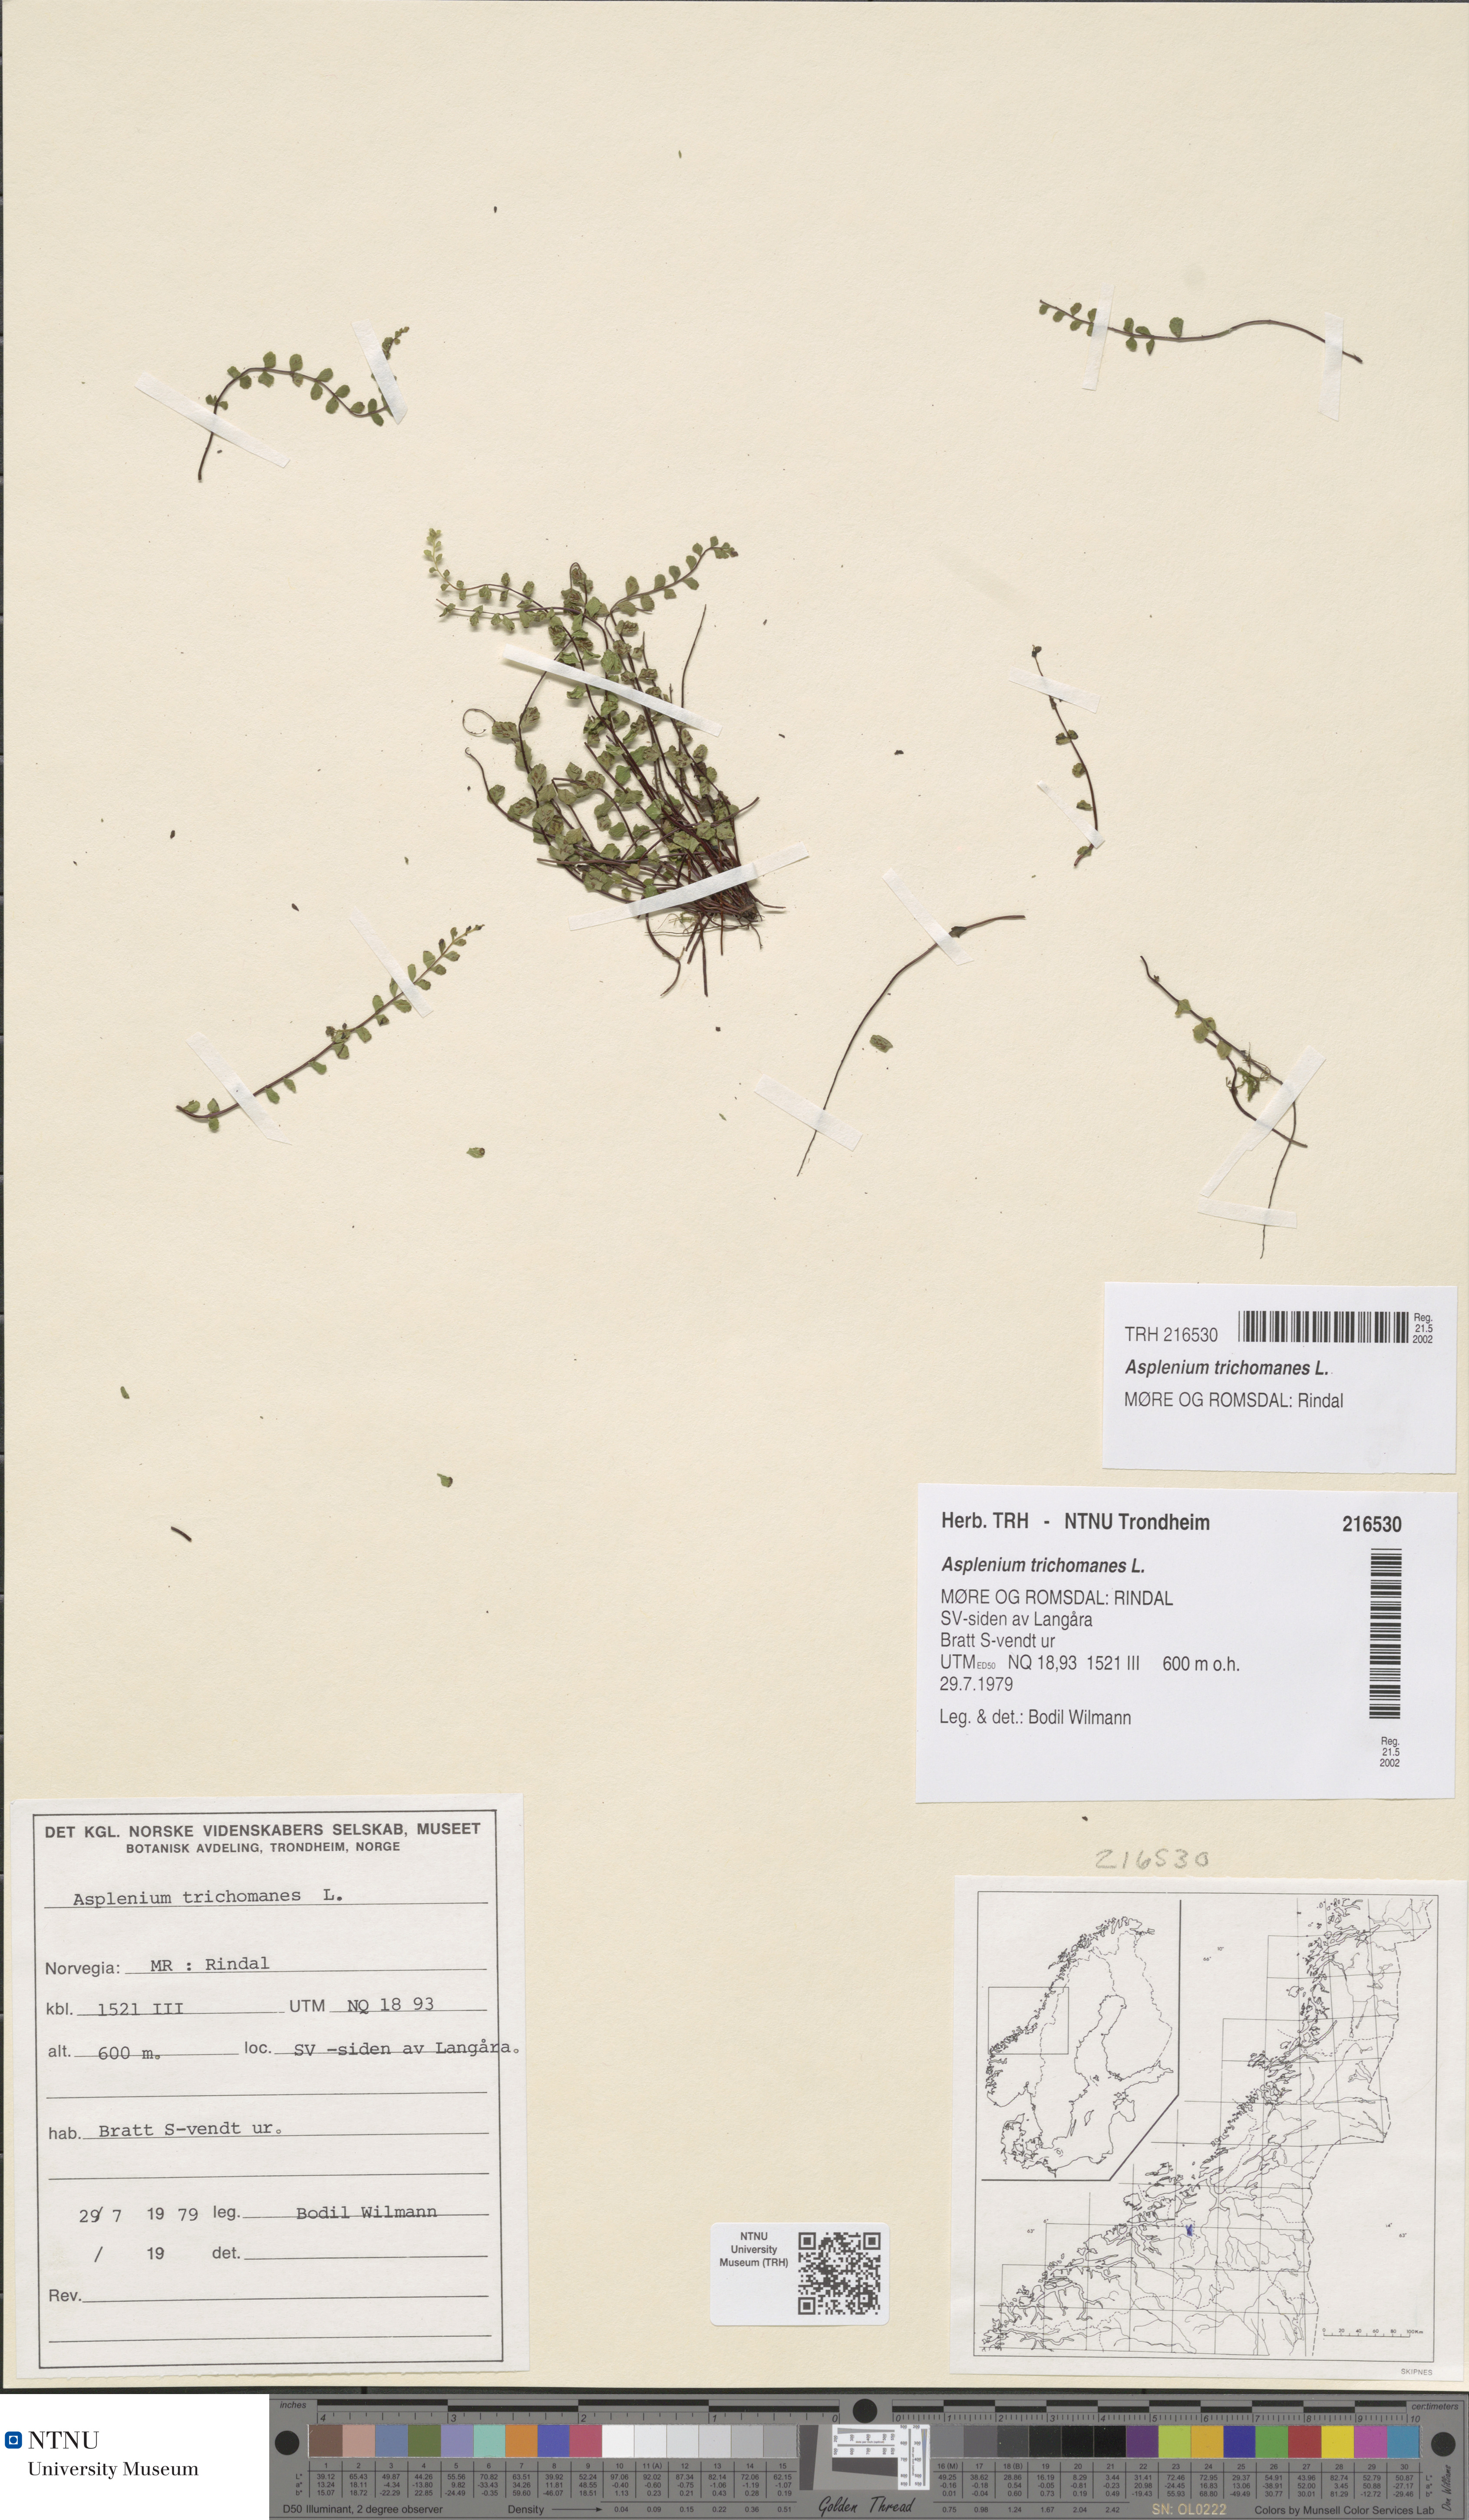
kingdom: Plantae
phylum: Tracheophyta
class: Polypodiopsida
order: Polypodiales
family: Aspleniaceae
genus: Asplenium
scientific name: Asplenium trichomanes
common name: Maidenhair spleenwort
